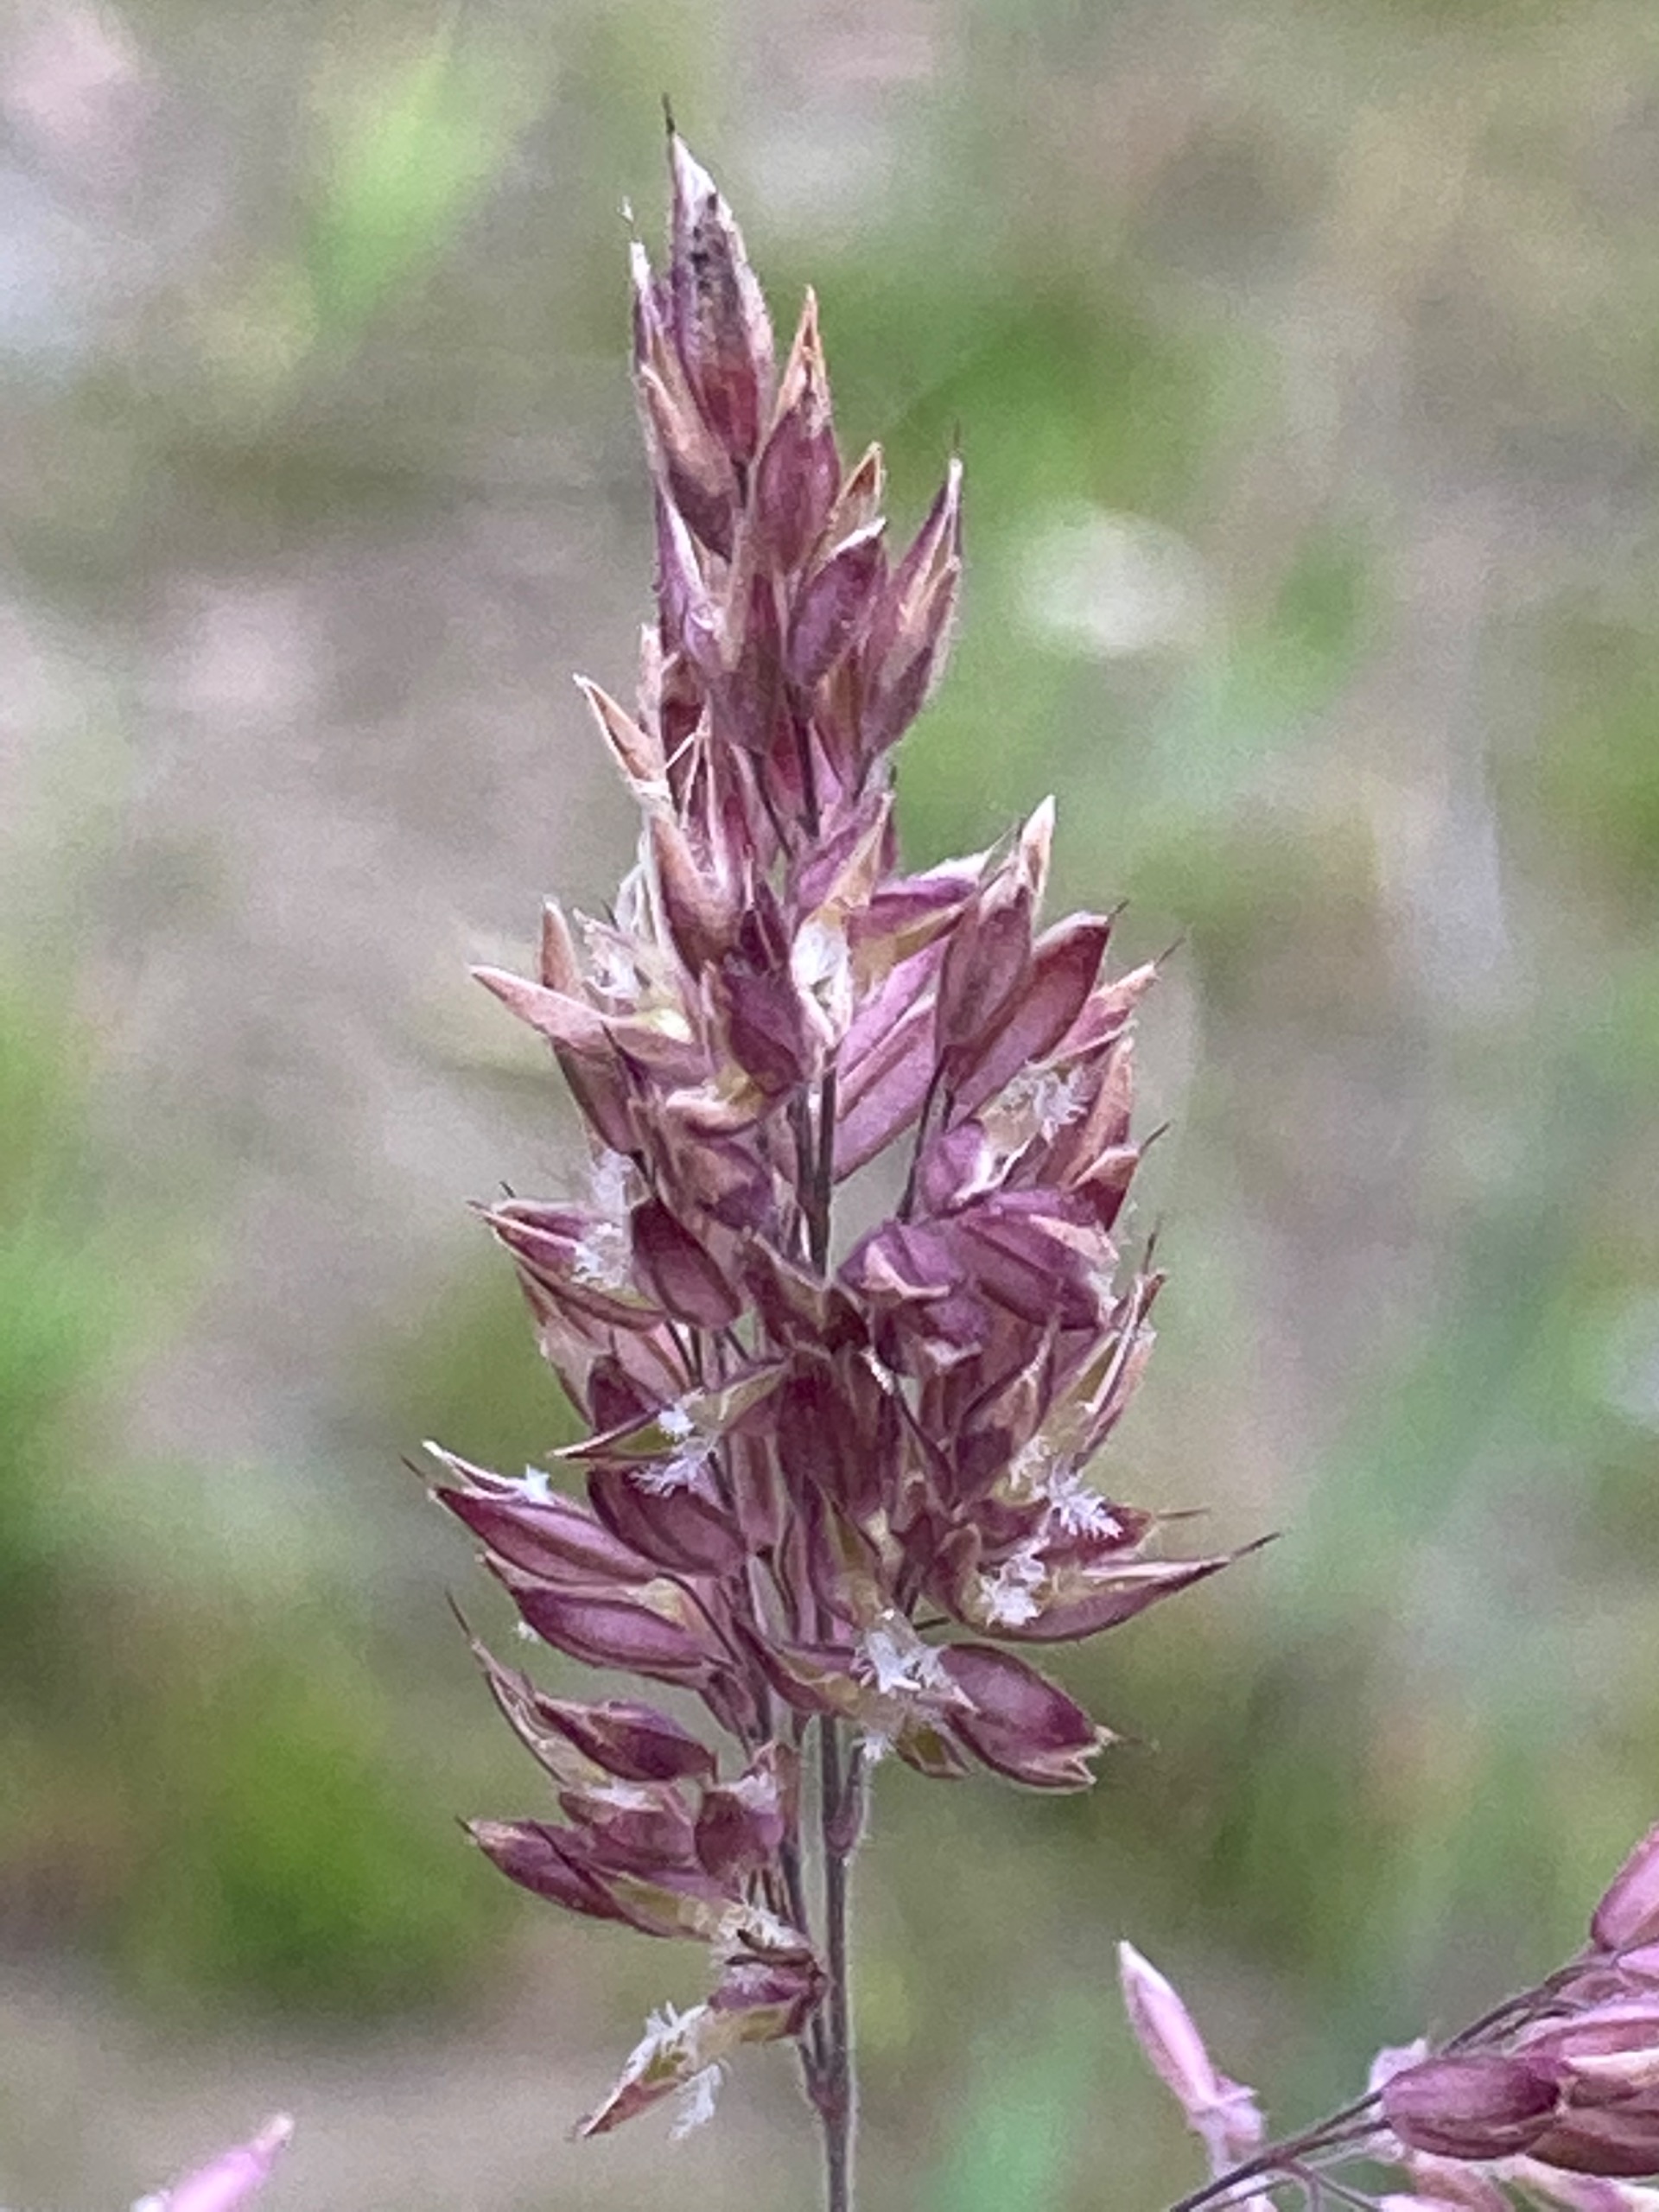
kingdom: Plantae
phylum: Tracheophyta
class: Liliopsida
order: Poales
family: Poaceae
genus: Holcus
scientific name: Holcus lanatus
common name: Fløjlsgræs
